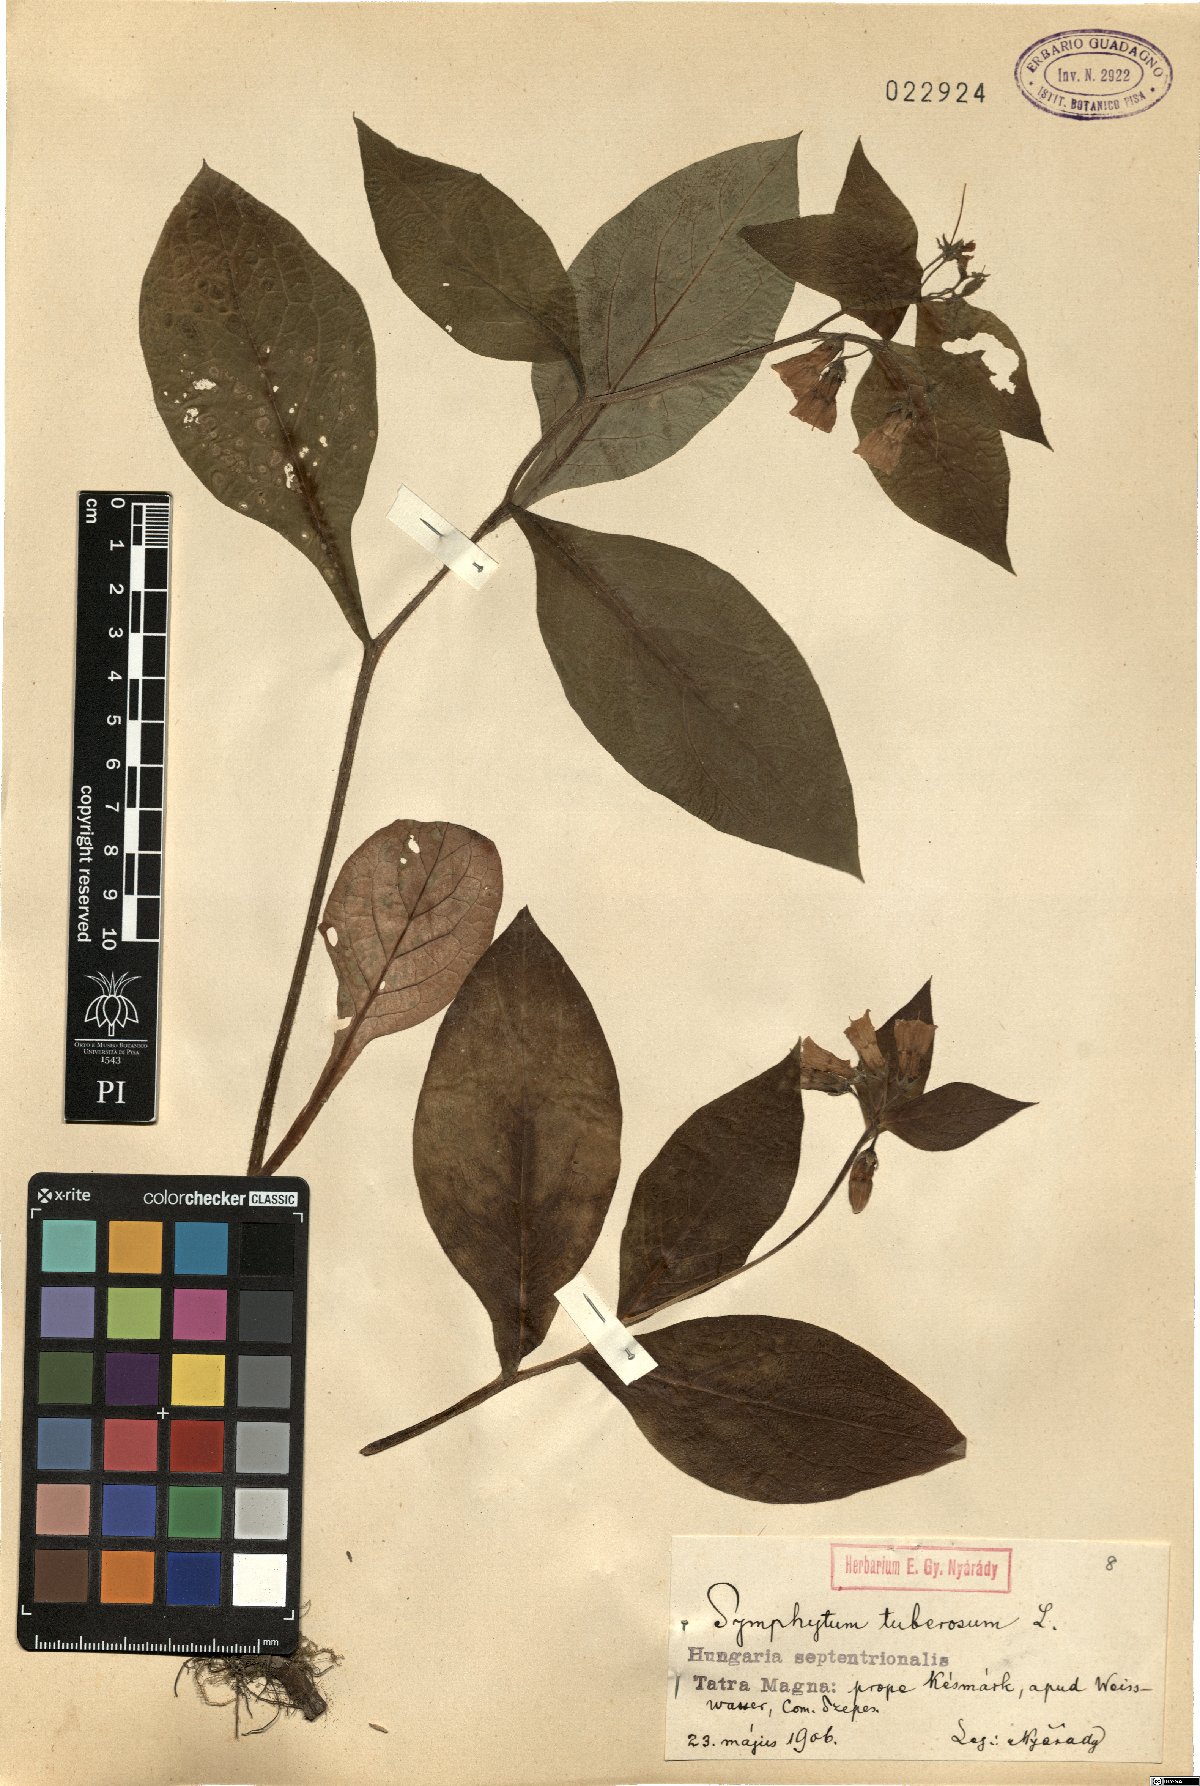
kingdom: Plantae
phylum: Tracheophyta
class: Magnoliopsida
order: Boraginales
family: Boraginaceae
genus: Symphytum
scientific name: Symphytum tuberosum
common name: Tuberous comfrey
